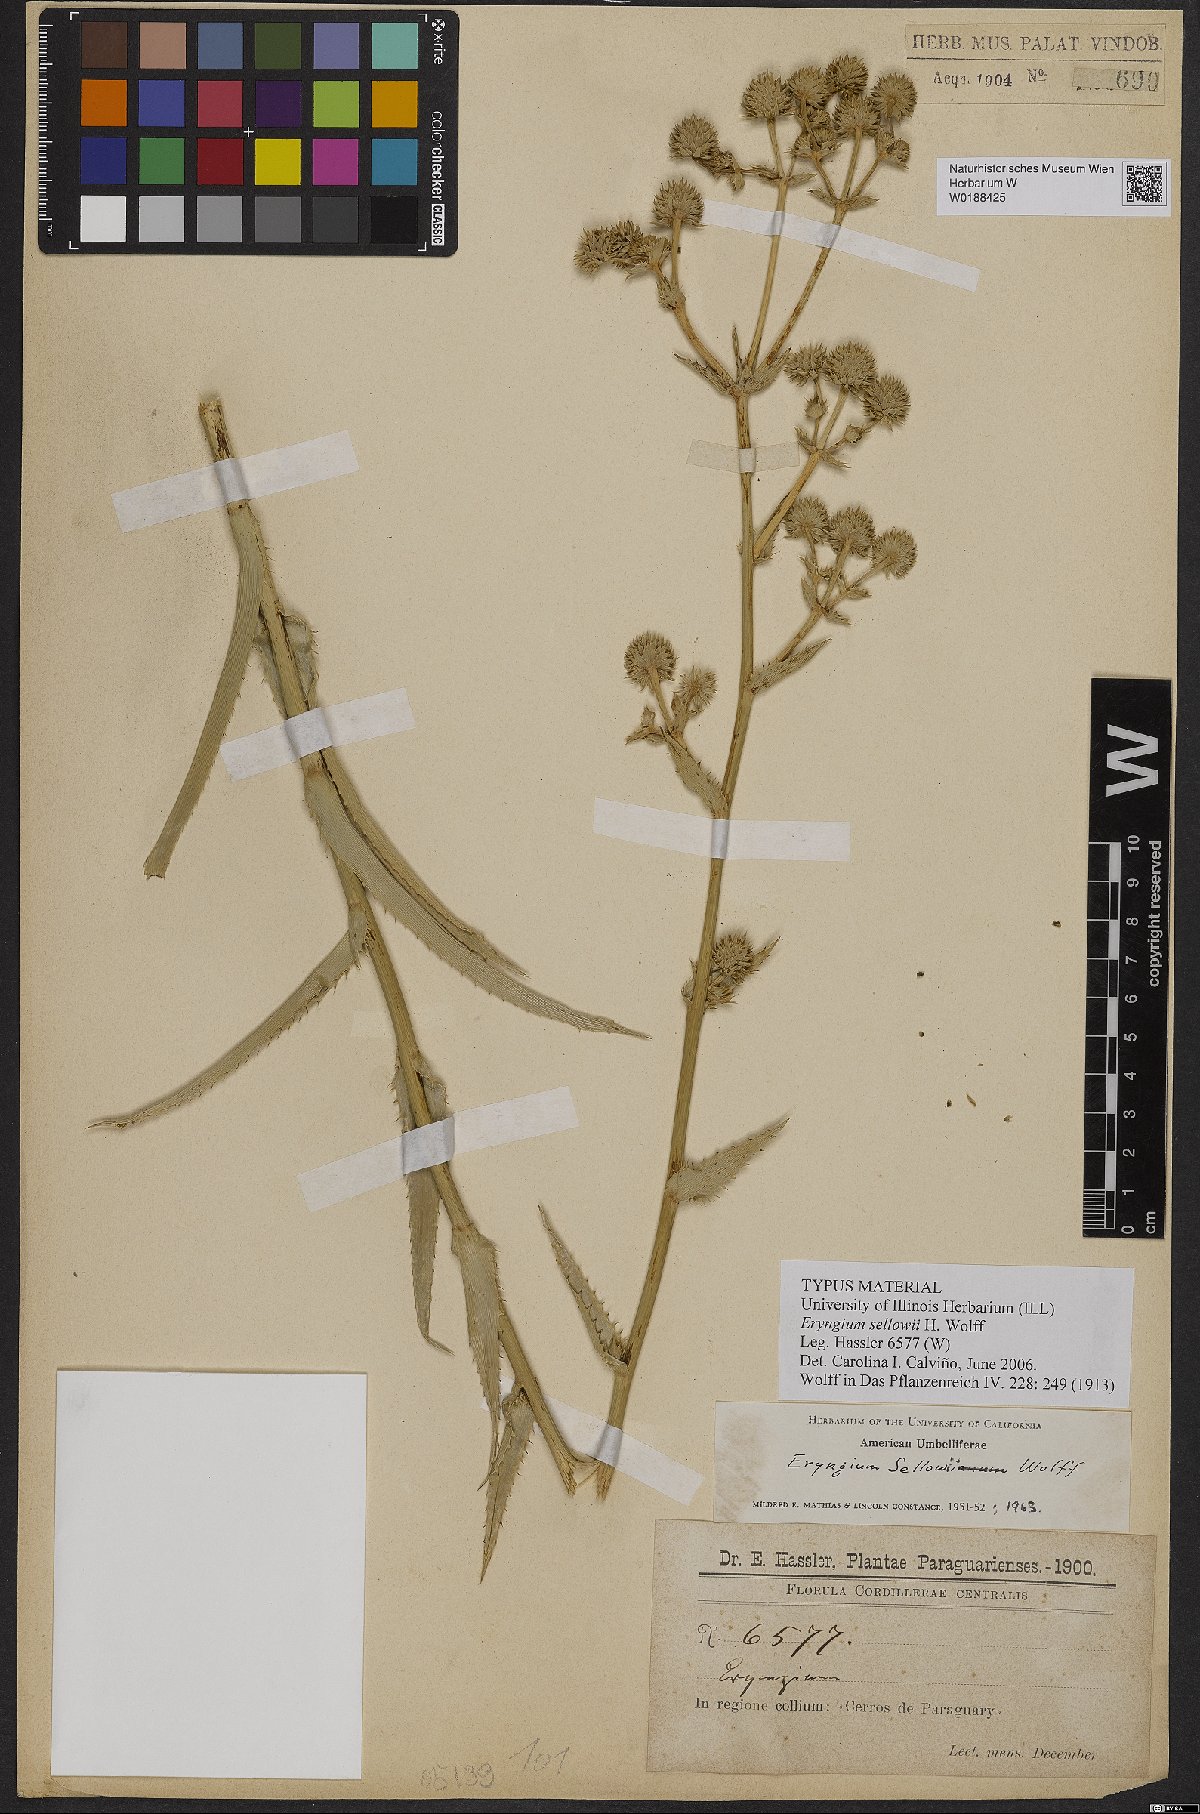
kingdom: Plantae
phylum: Tracheophyta
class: Magnoliopsida
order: Apiales
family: Apiaceae
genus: Eryngium
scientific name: Eryngium sellowii
